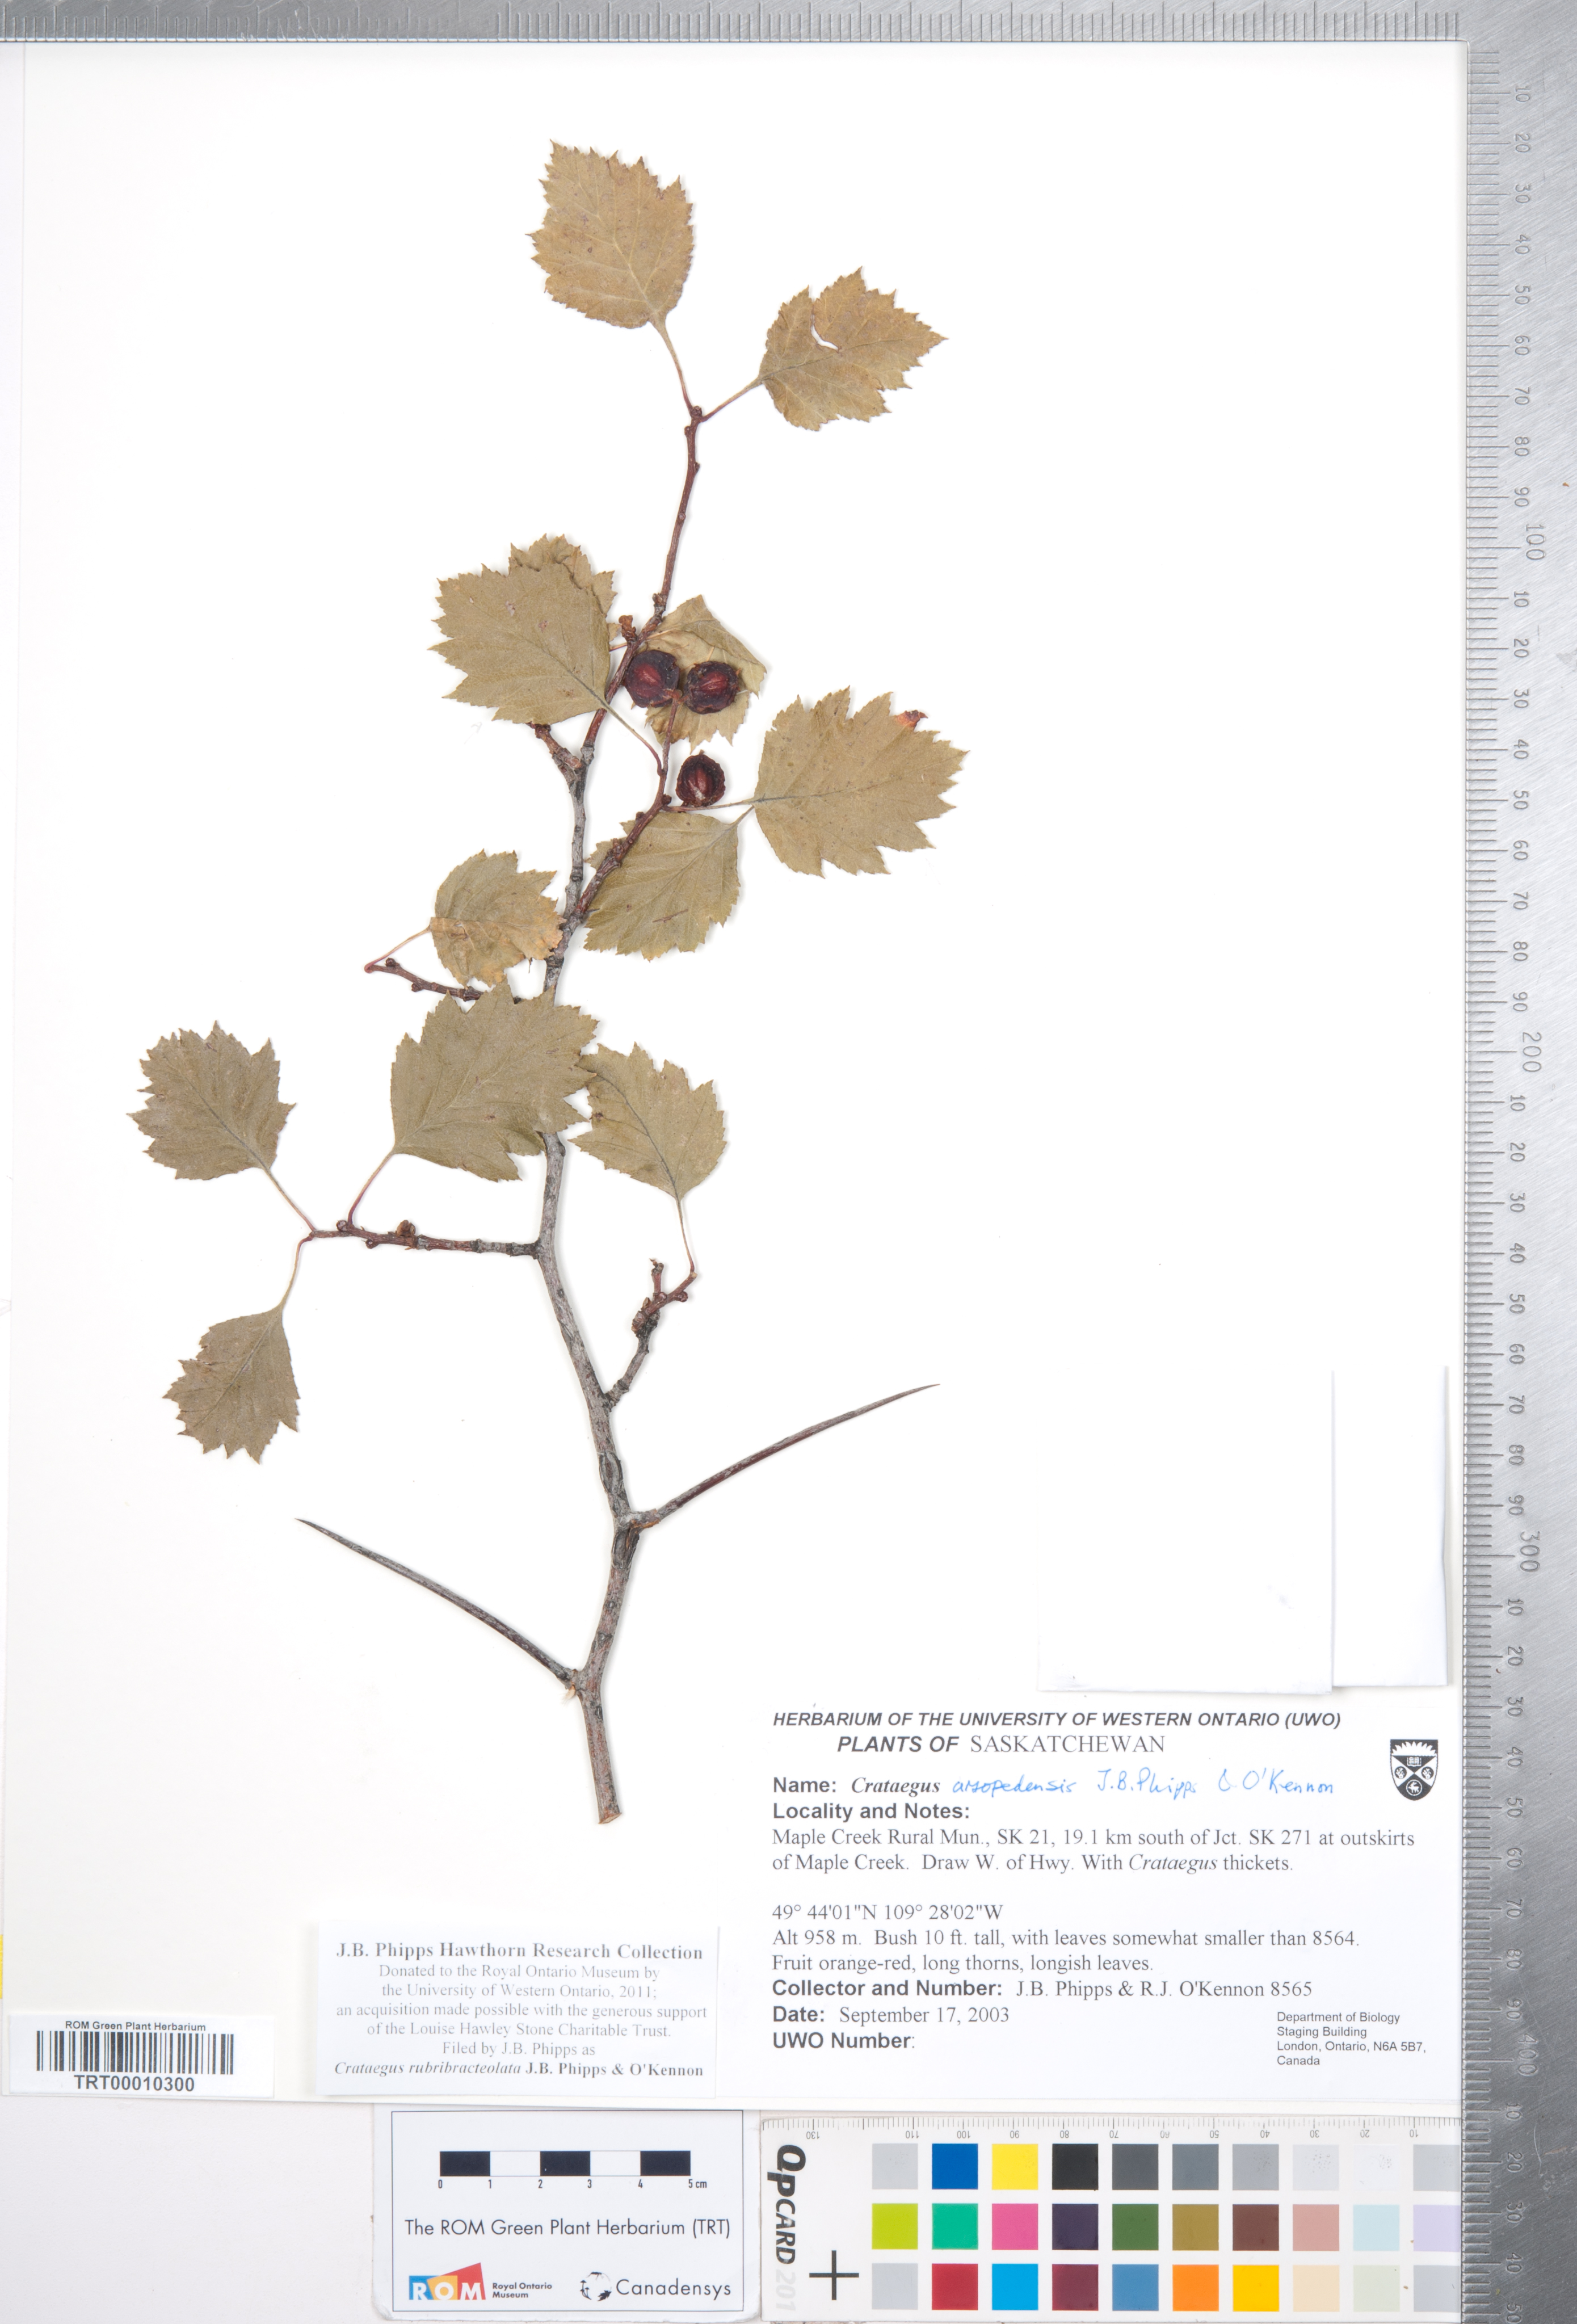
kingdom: Plantae
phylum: Tracheophyta
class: Magnoliopsida
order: Rosales
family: Rosaceae
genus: Crataegus
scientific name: Crataegus rubribracteolata
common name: Red bracteole hawthorn
